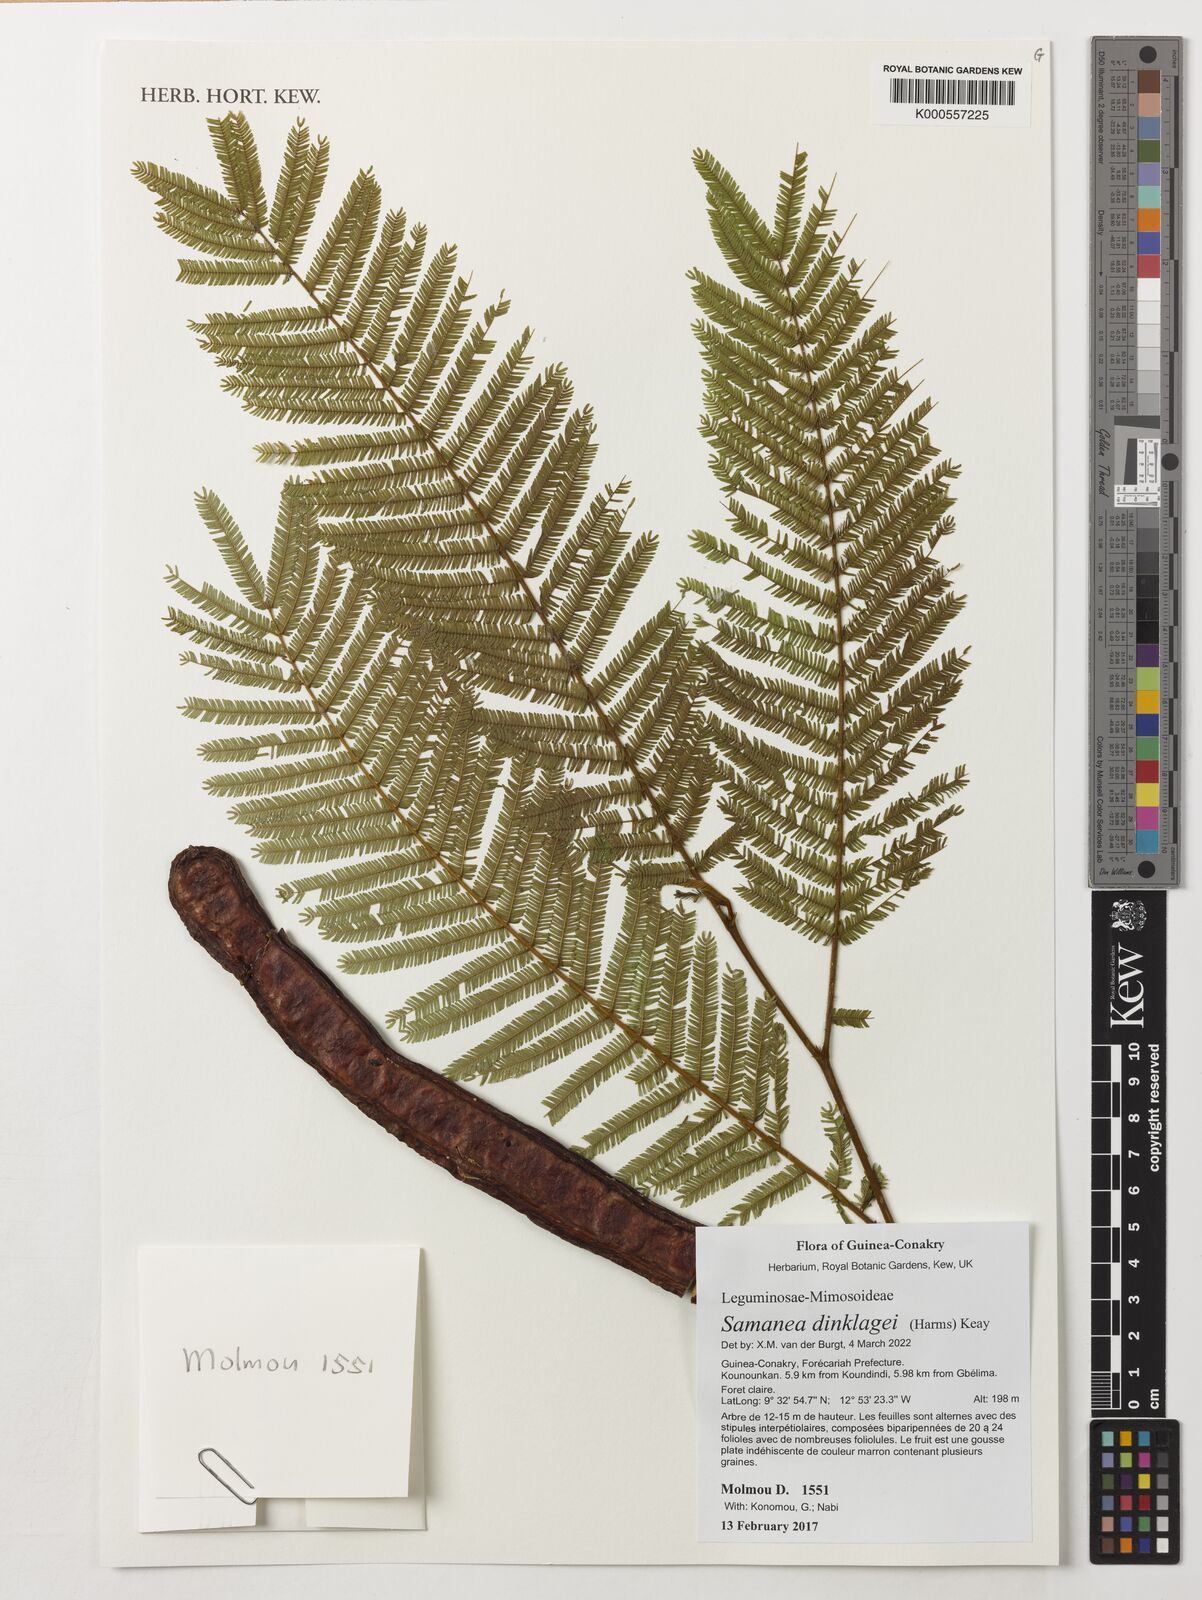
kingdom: Plantae
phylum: Tracheophyta
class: Magnoliopsida
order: Fabales
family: Fabaceae
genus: Albizia
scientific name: Albizia dinklagei
